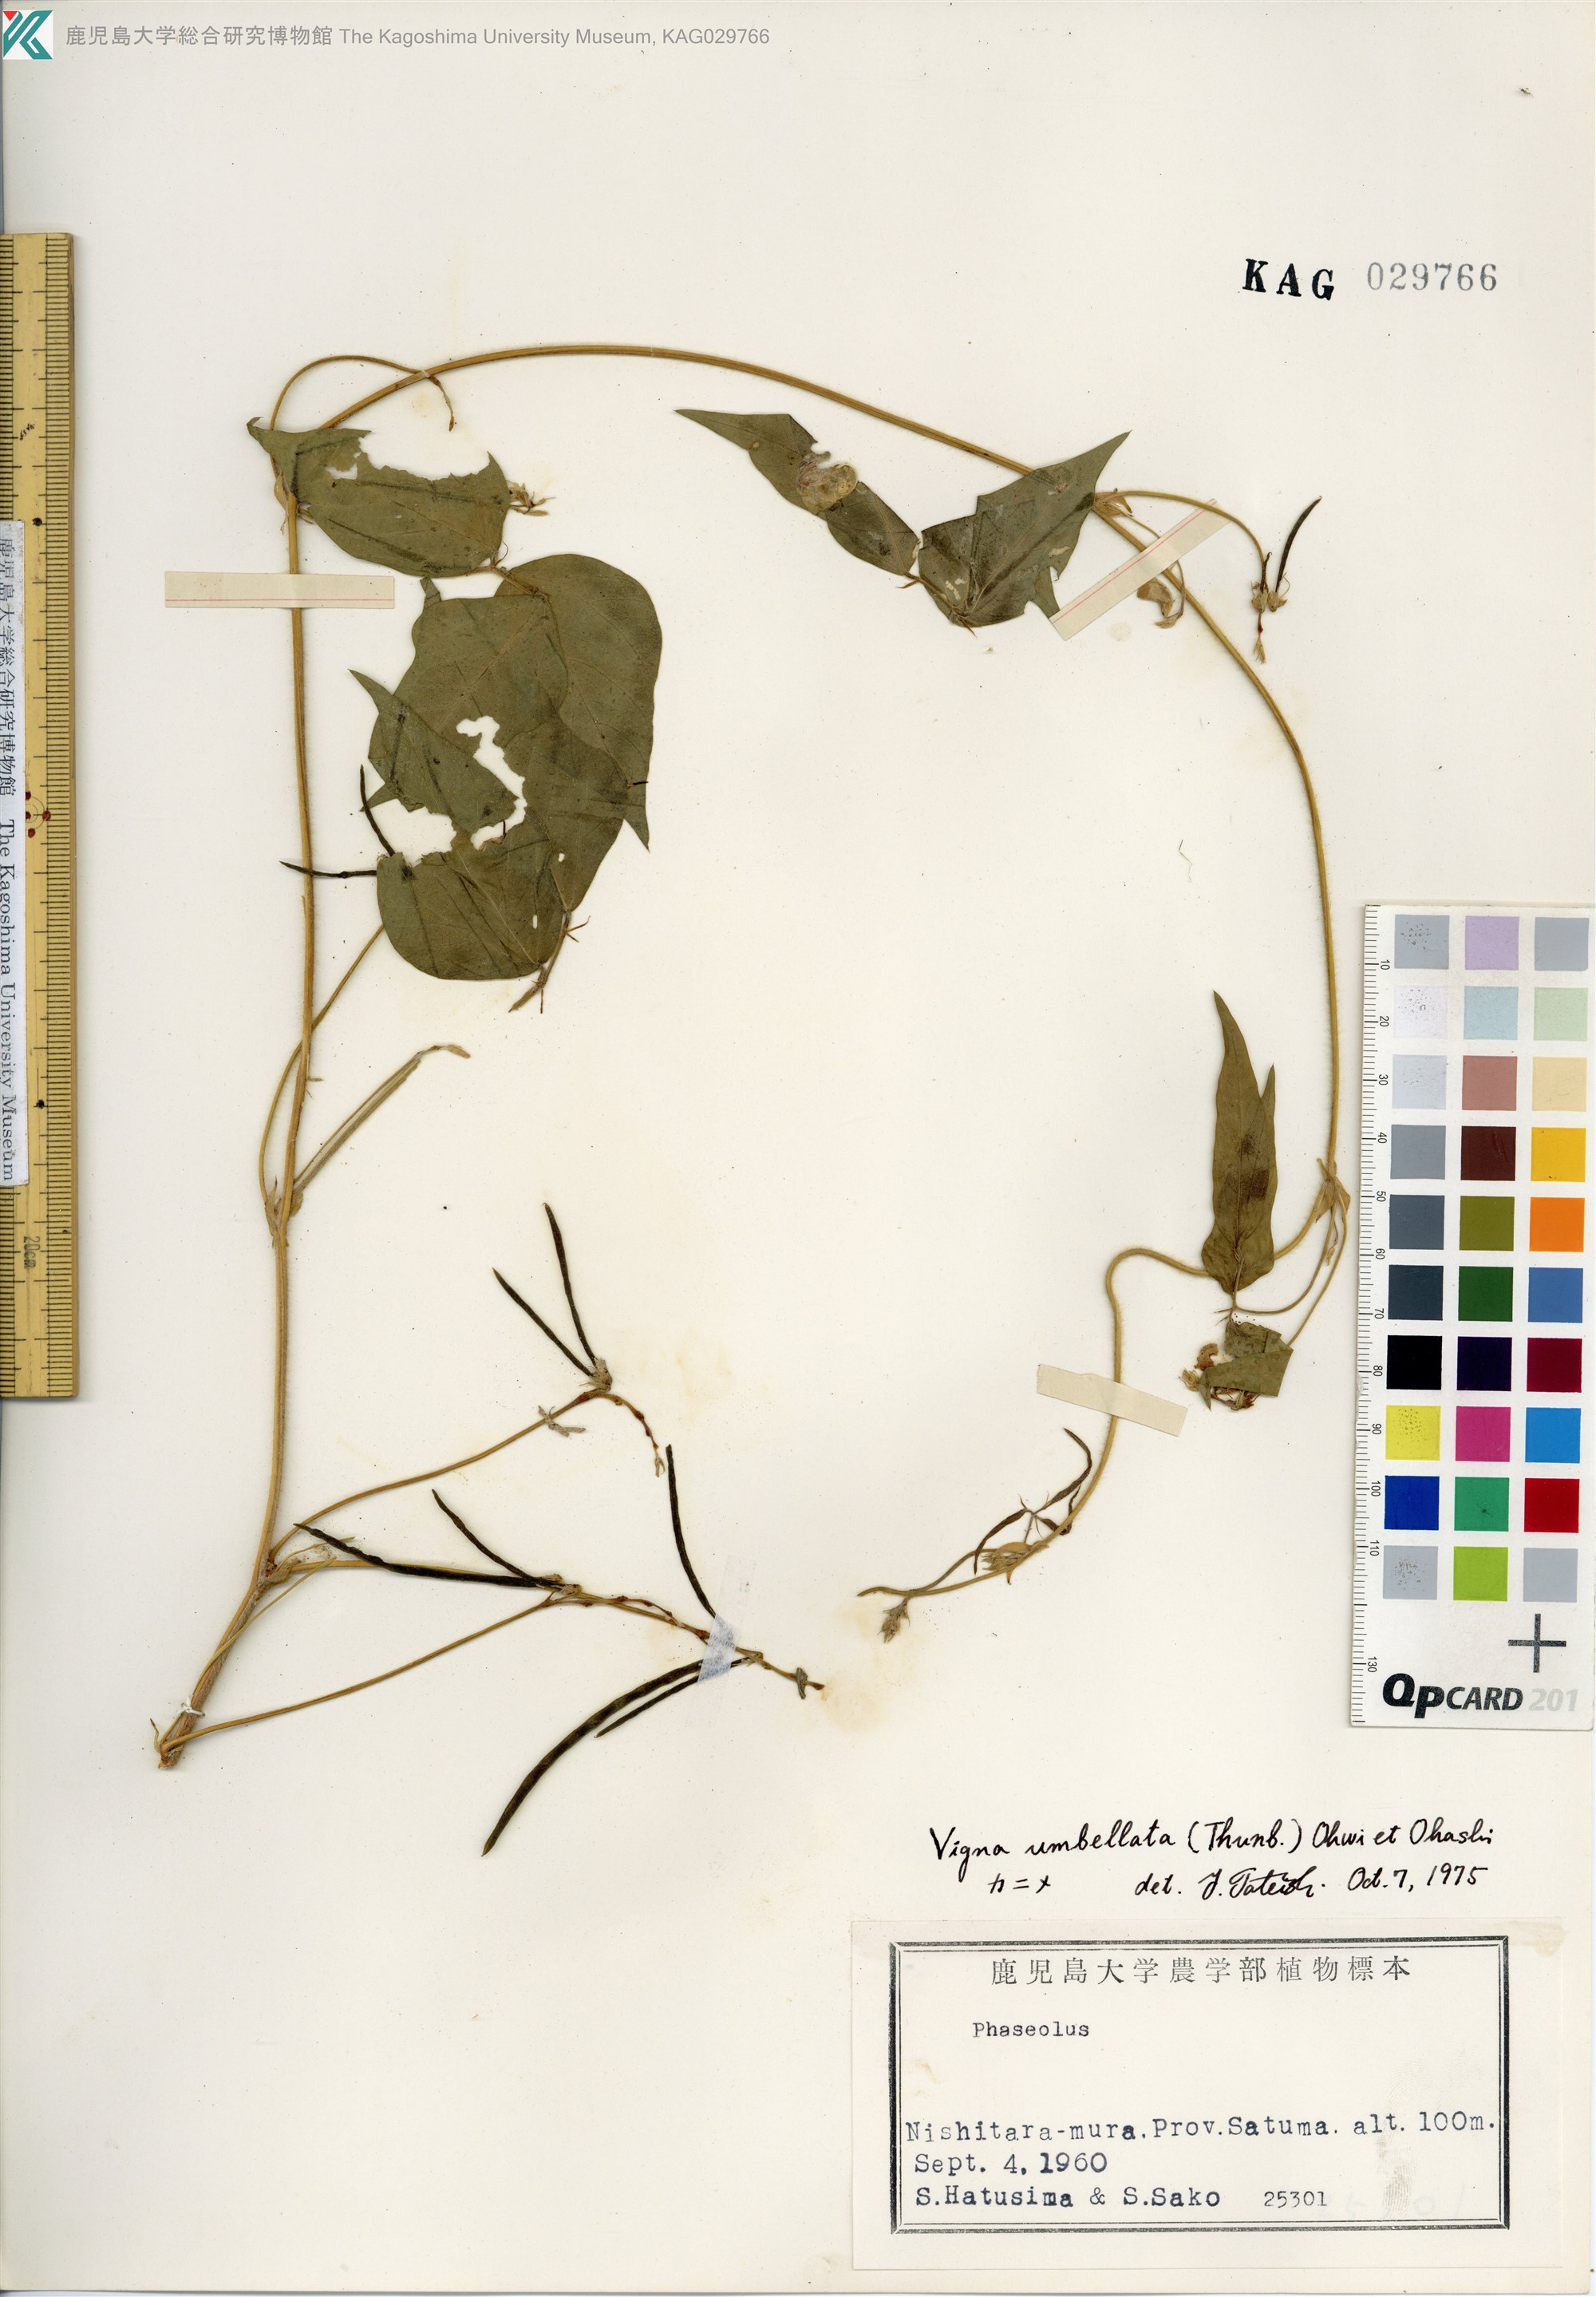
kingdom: Plantae
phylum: Tracheophyta
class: Magnoliopsida
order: Fabales
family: Fabaceae
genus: Vigna
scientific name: Vigna umbellata
